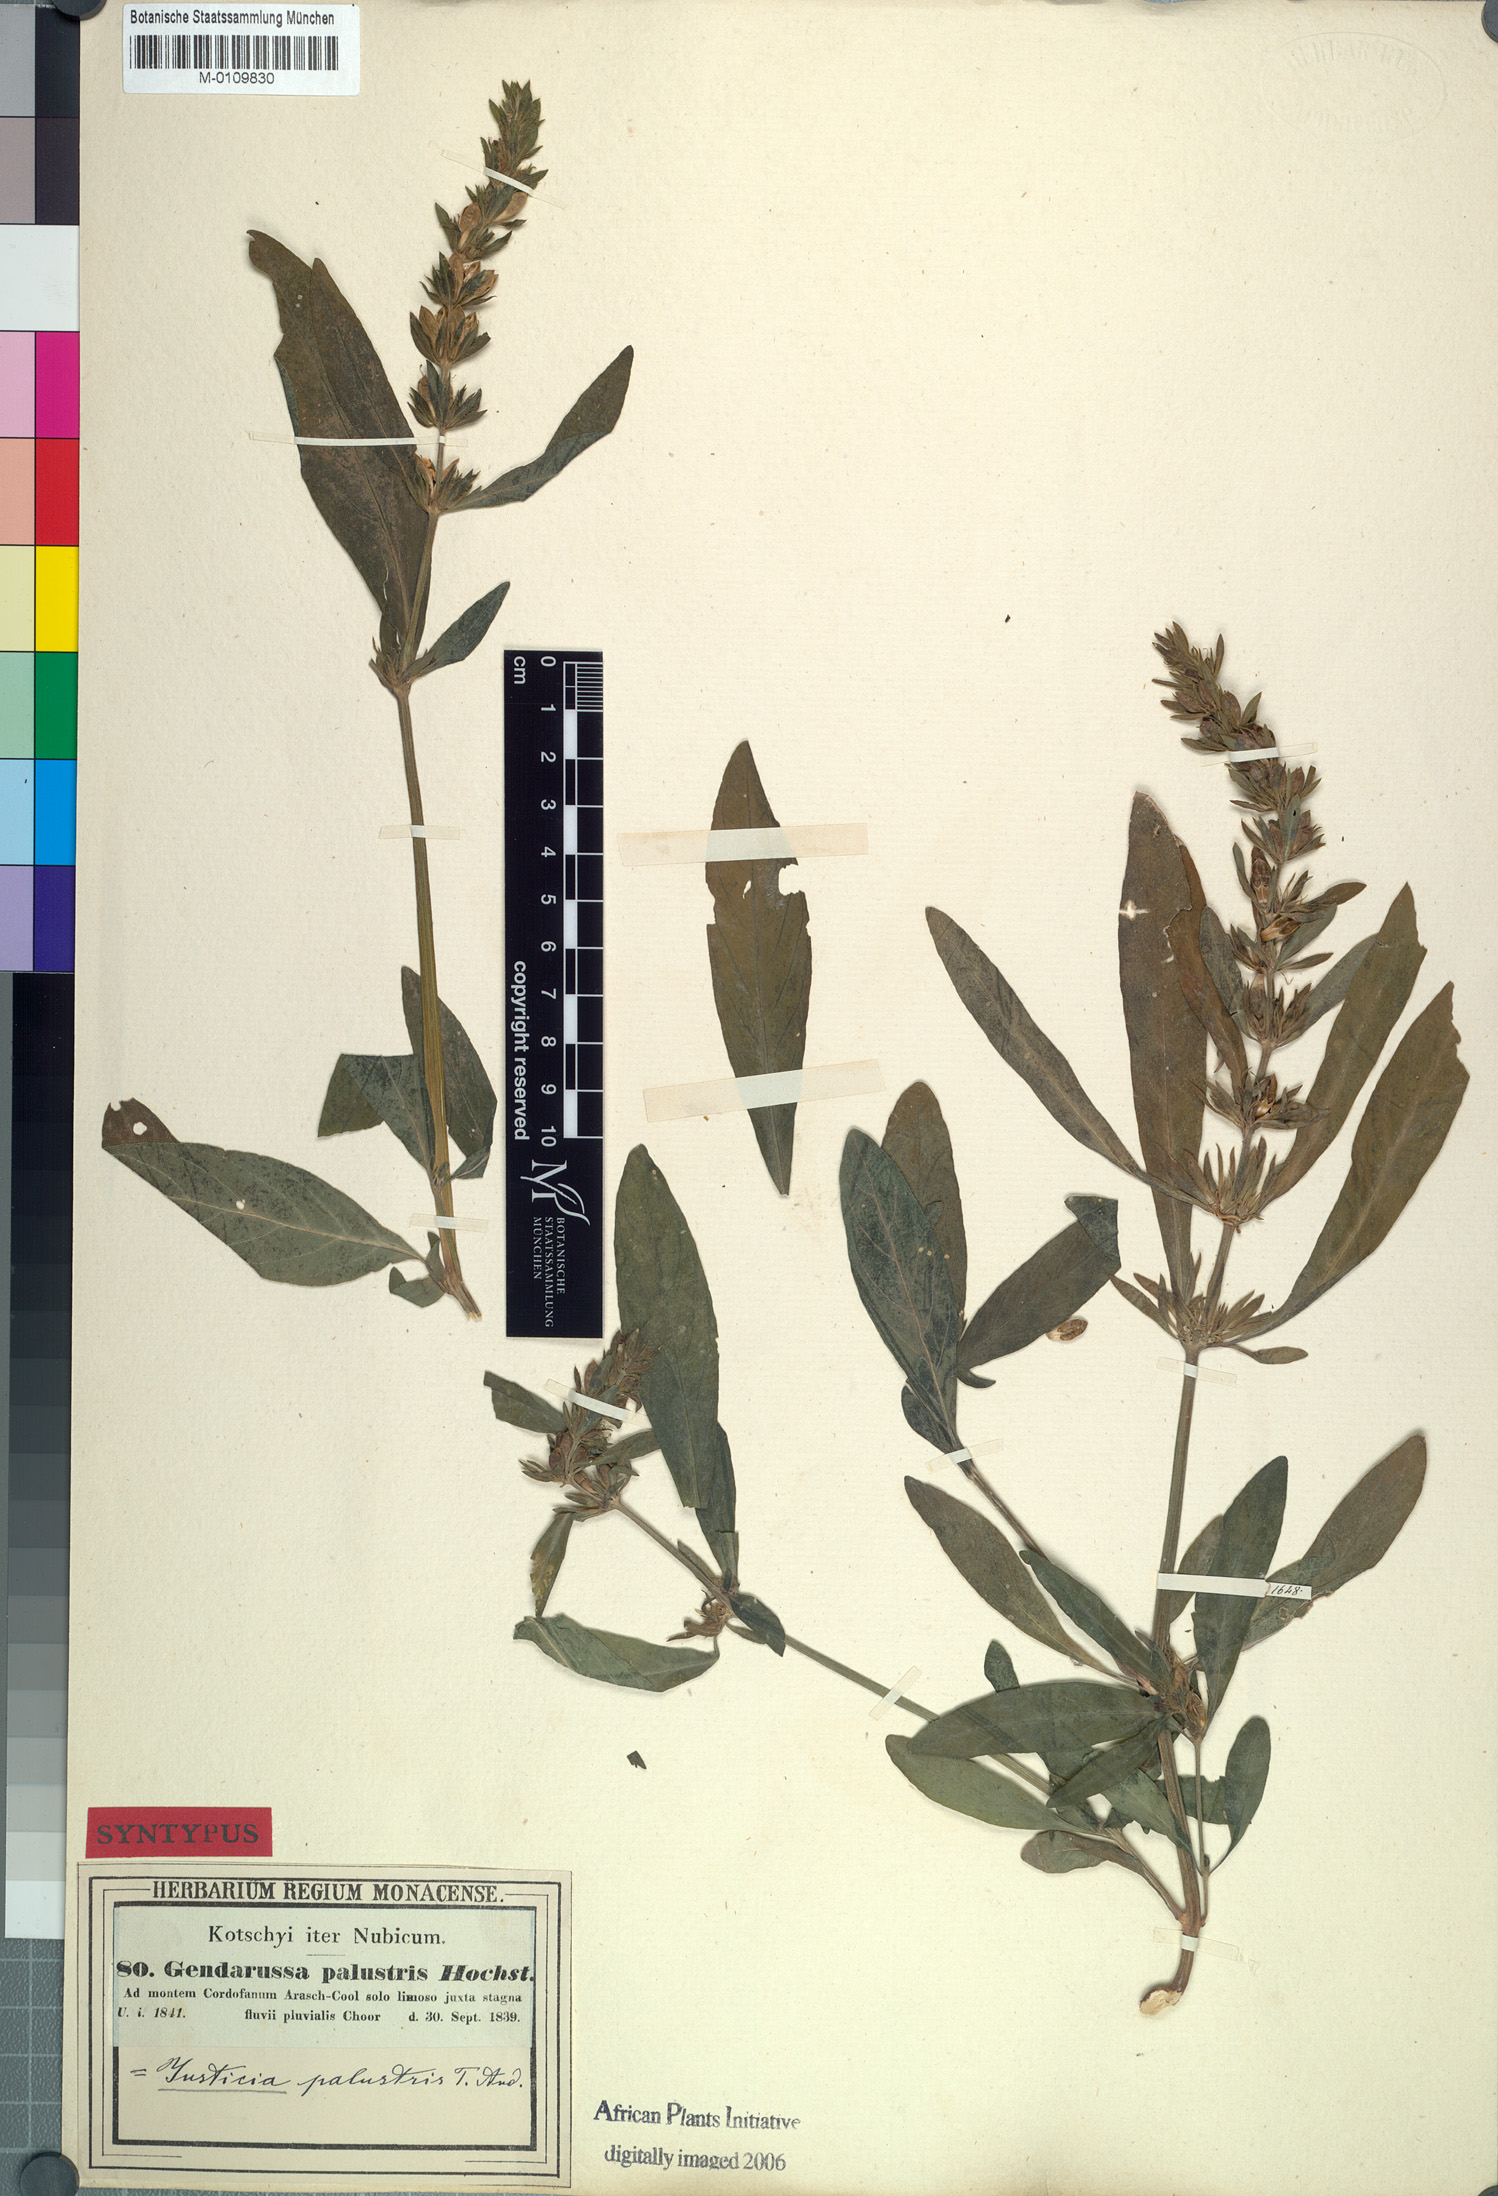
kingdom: Plantae
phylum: Tracheophyta
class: Magnoliopsida
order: Lamiales
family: Acanthaceae
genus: Justicia
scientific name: Justicia flava
